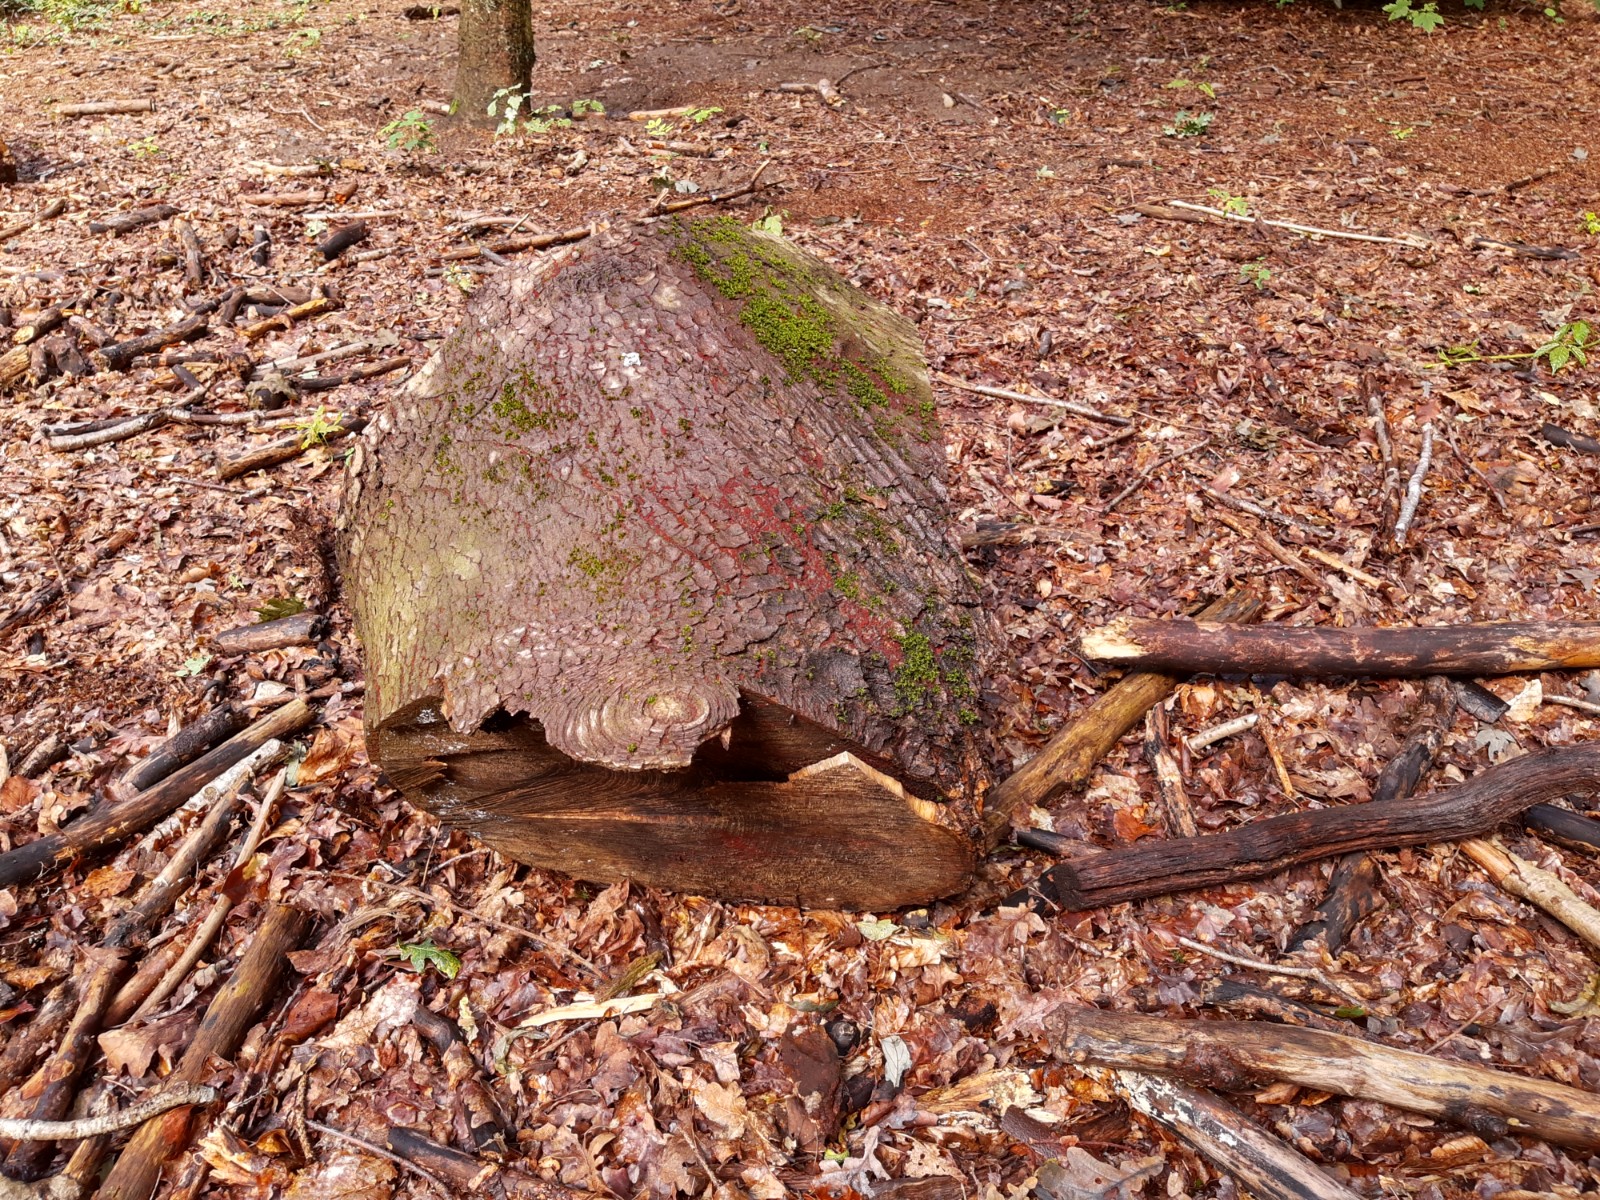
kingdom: Fungi
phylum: Ascomycota
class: Sordariomycetes
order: Hypocreales
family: Nectriaceae
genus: Neonectria
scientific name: Neonectria coccinea
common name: bøgebark-cinnobersvamp
